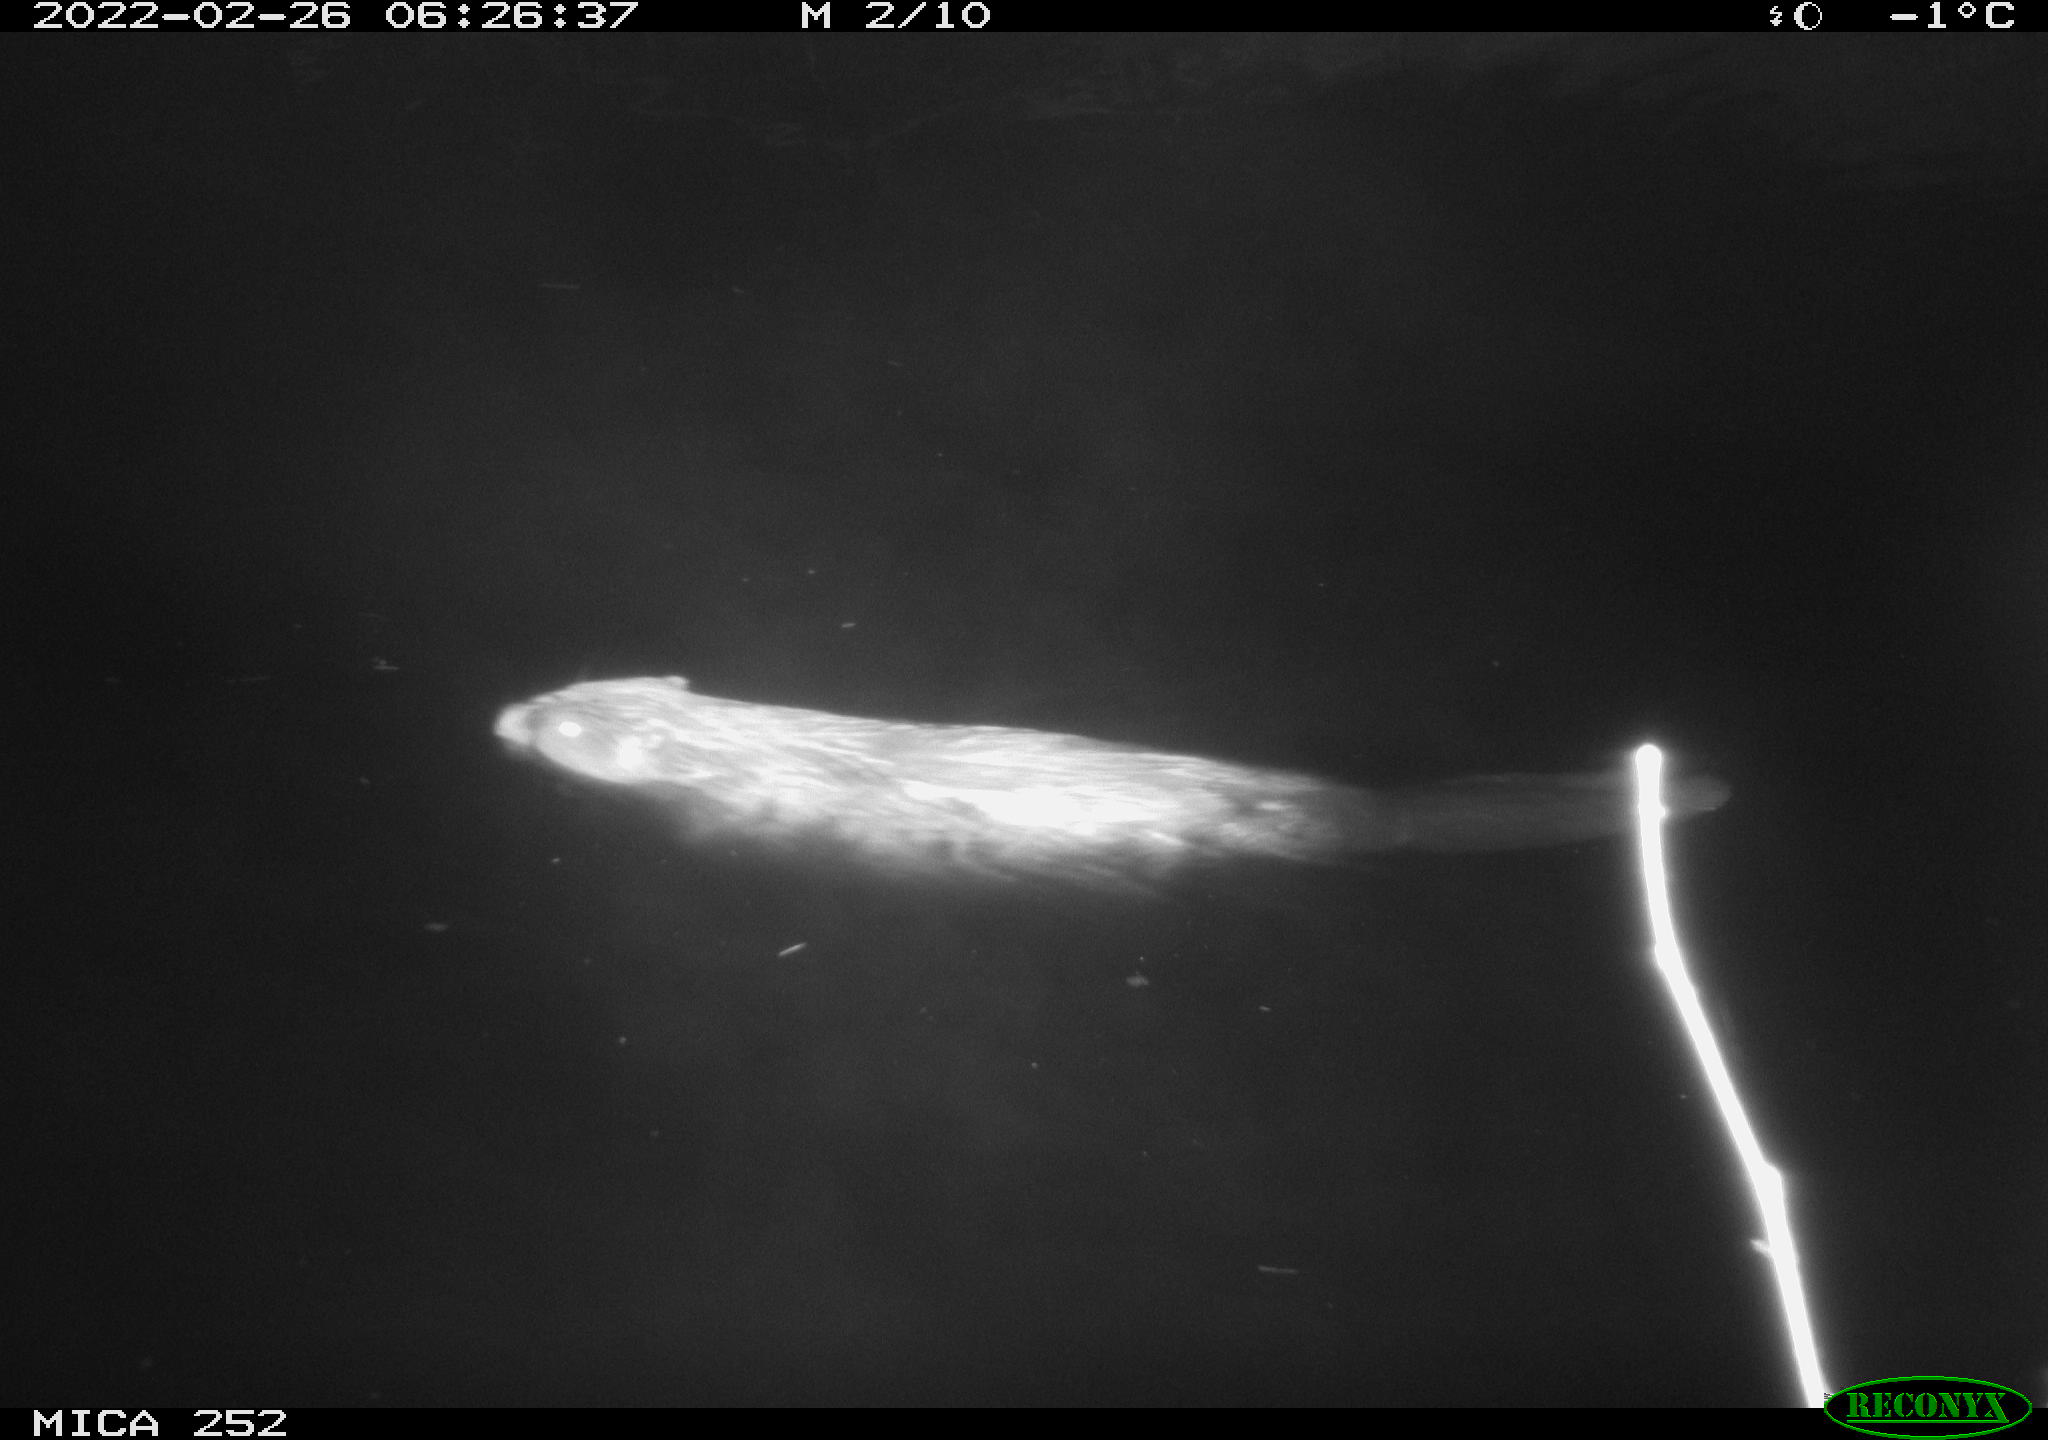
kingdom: Animalia
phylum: Chordata
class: Mammalia
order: Rodentia
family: Castoridae
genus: Castor
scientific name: Castor fiber
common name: Eurasian beaver
